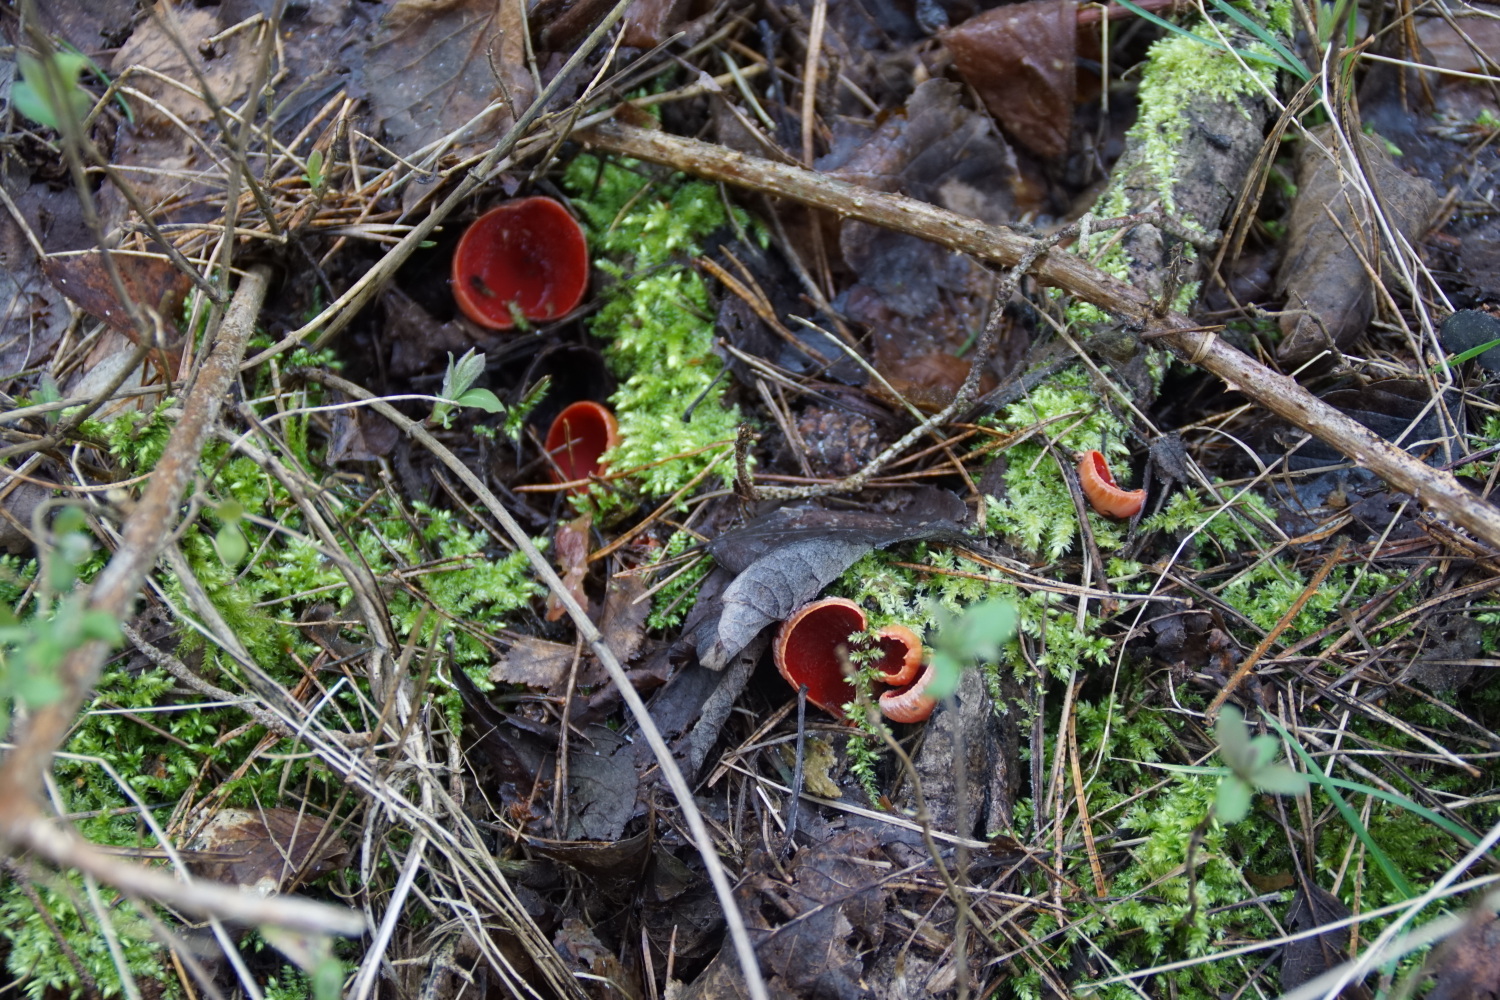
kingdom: Fungi
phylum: Ascomycota
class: Pezizomycetes
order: Pezizales
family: Sarcoscyphaceae
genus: Sarcoscypha
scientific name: Sarcoscypha austriaca
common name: krølhåret pragtbæger
